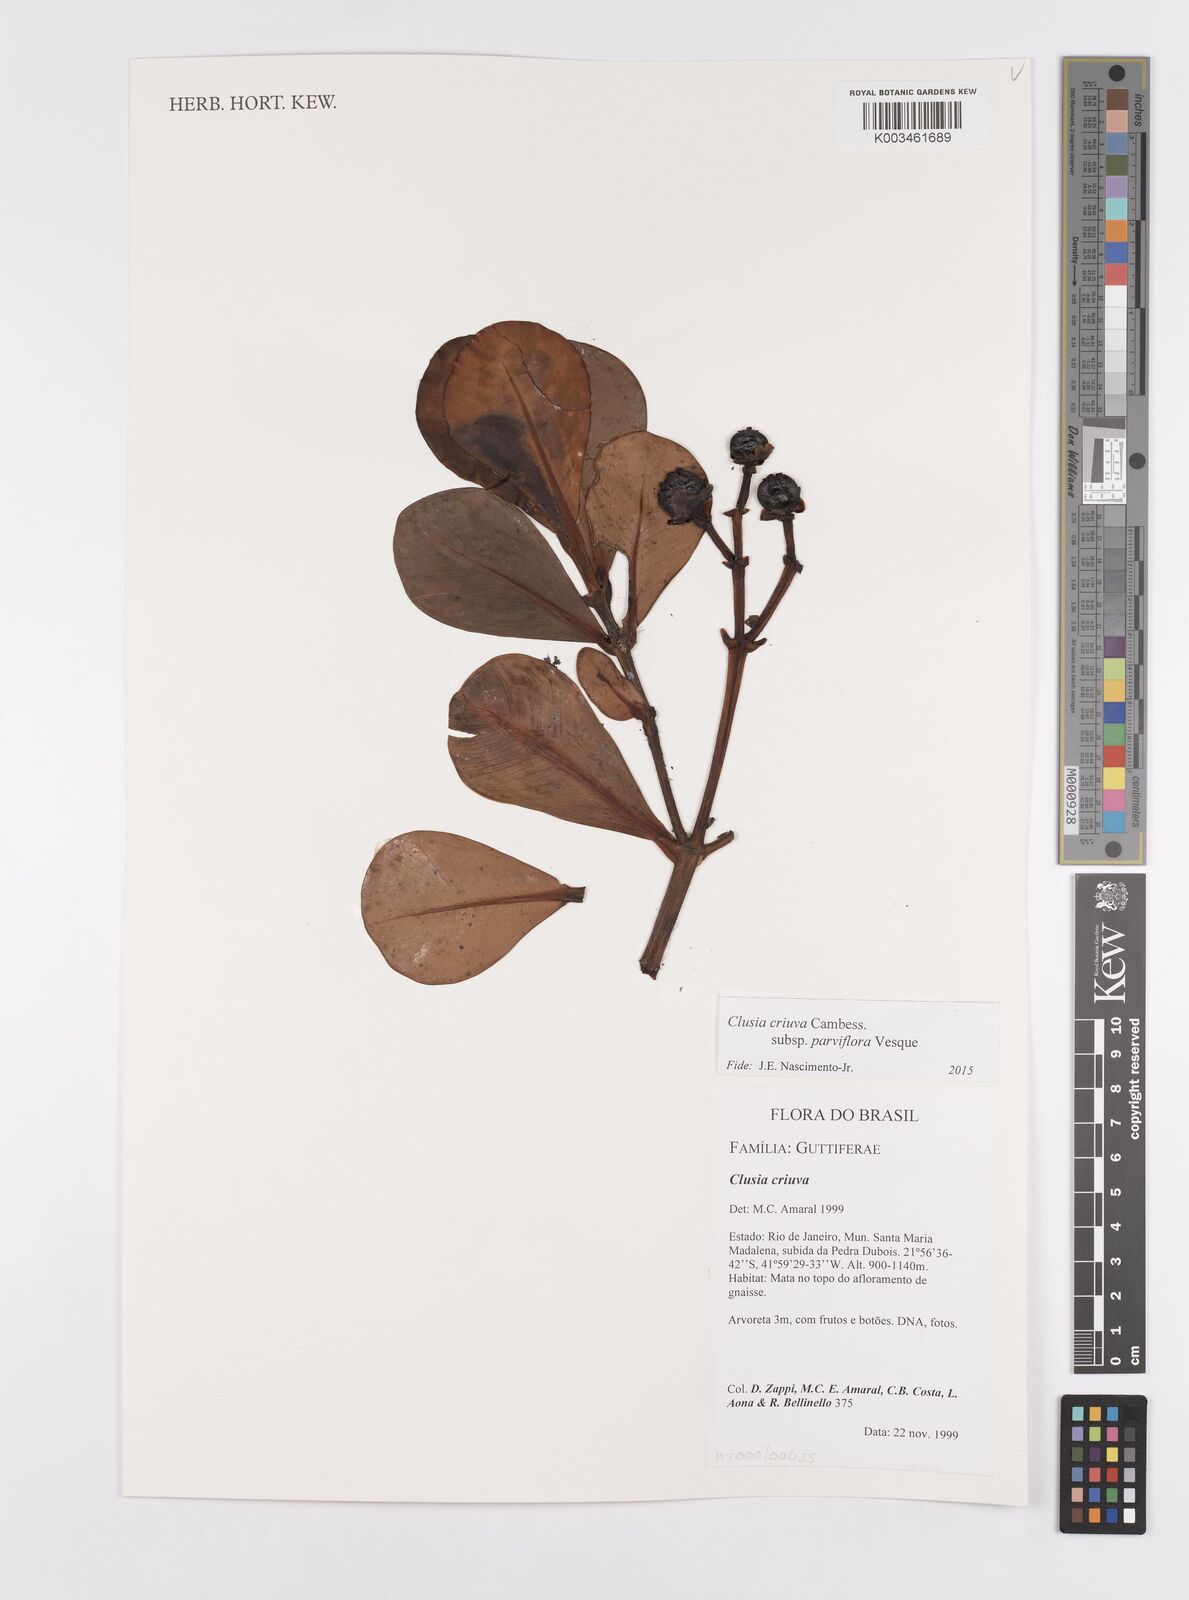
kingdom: Plantae
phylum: Tracheophyta
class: Magnoliopsida
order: Malpighiales
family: Clusiaceae
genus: Clusia
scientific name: Clusia criuva
